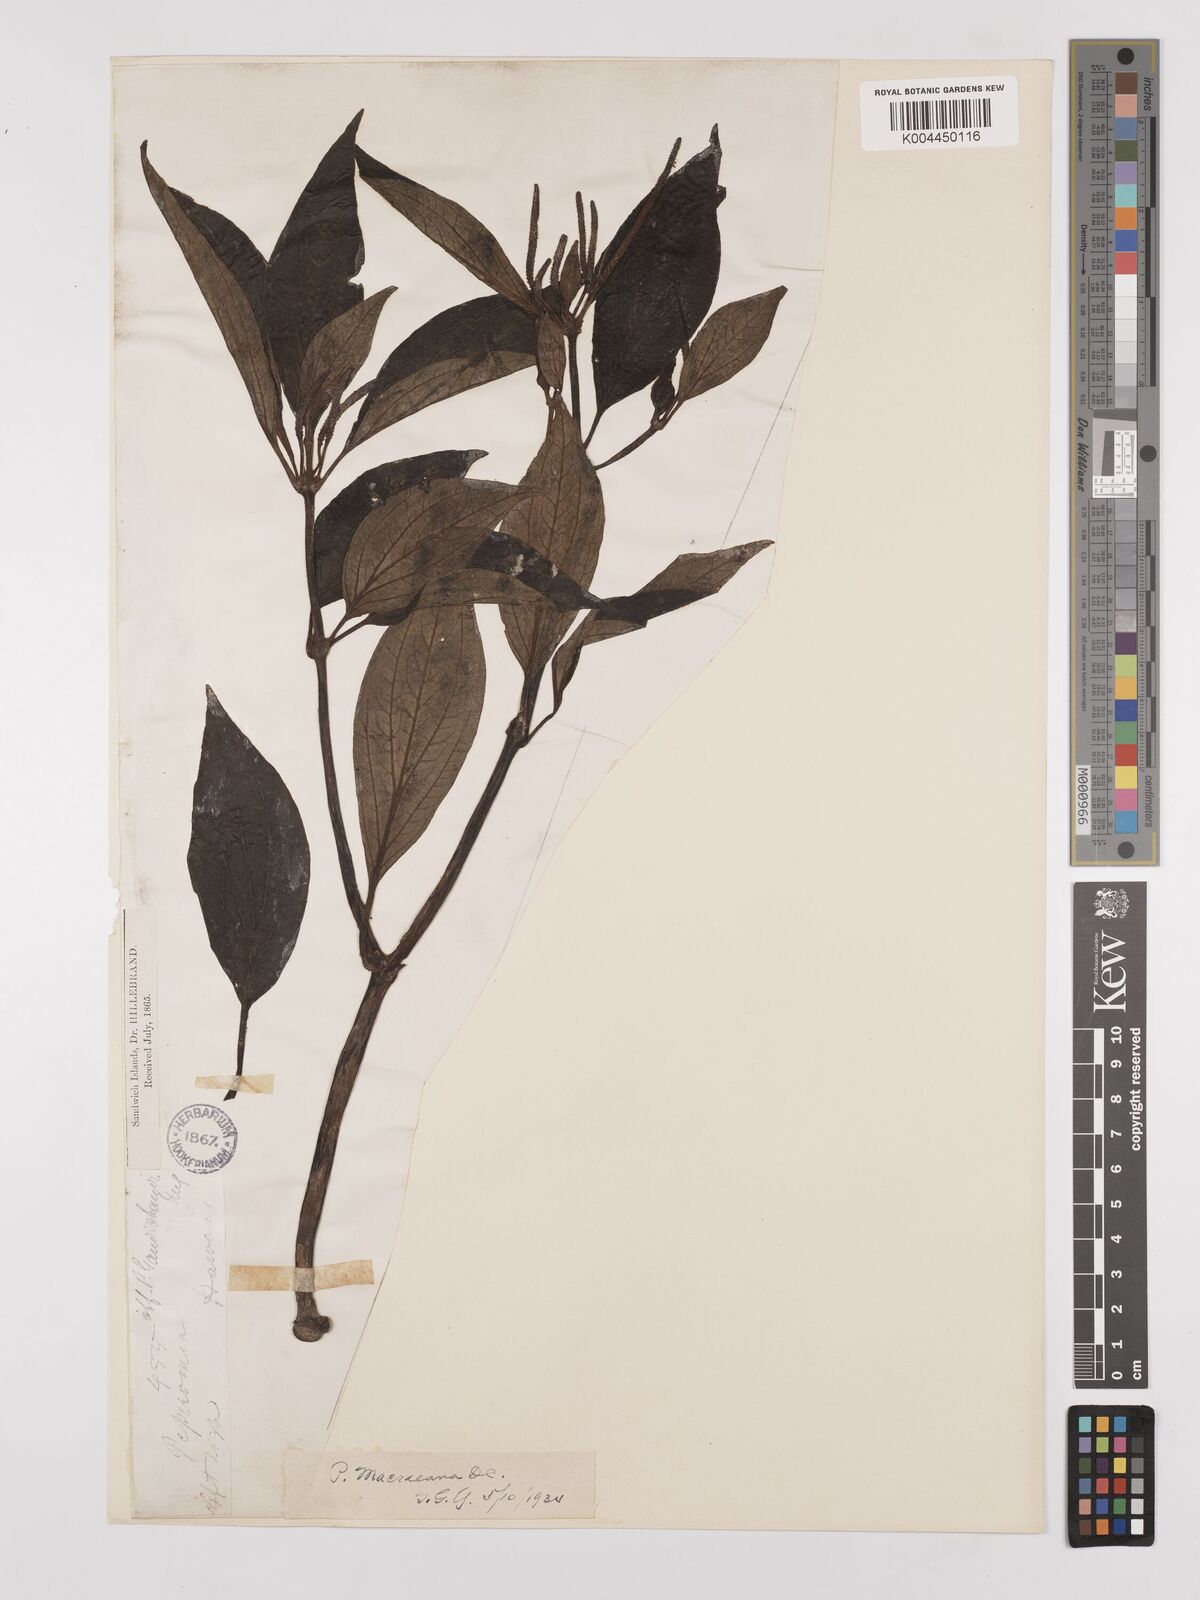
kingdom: Plantae
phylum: Tracheophyta
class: Magnoliopsida
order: Piperales
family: Piperaceae
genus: Peperomia
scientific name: Peperomia macraeana
